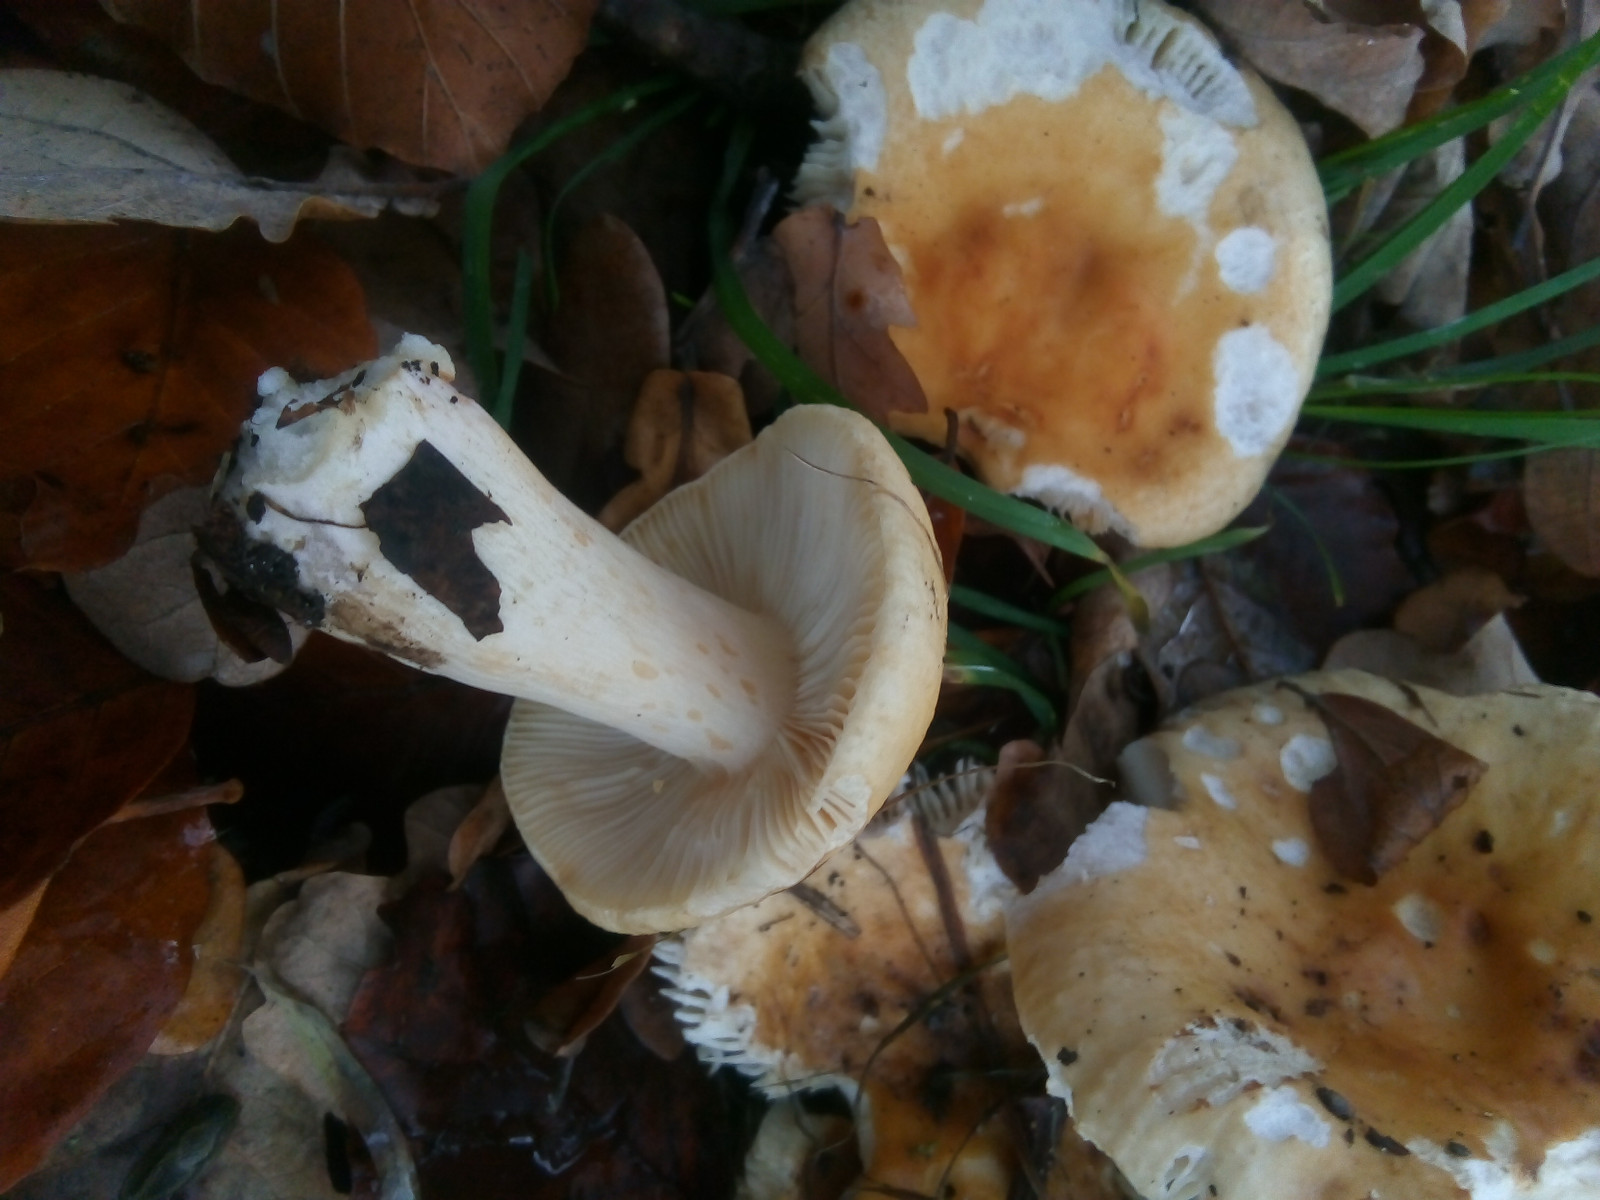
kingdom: Fungi
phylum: Basidiomycota
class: Agaricomycetes
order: Russulales
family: Russulaceae
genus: Russula
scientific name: Russula fellea
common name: galde-skørhat
